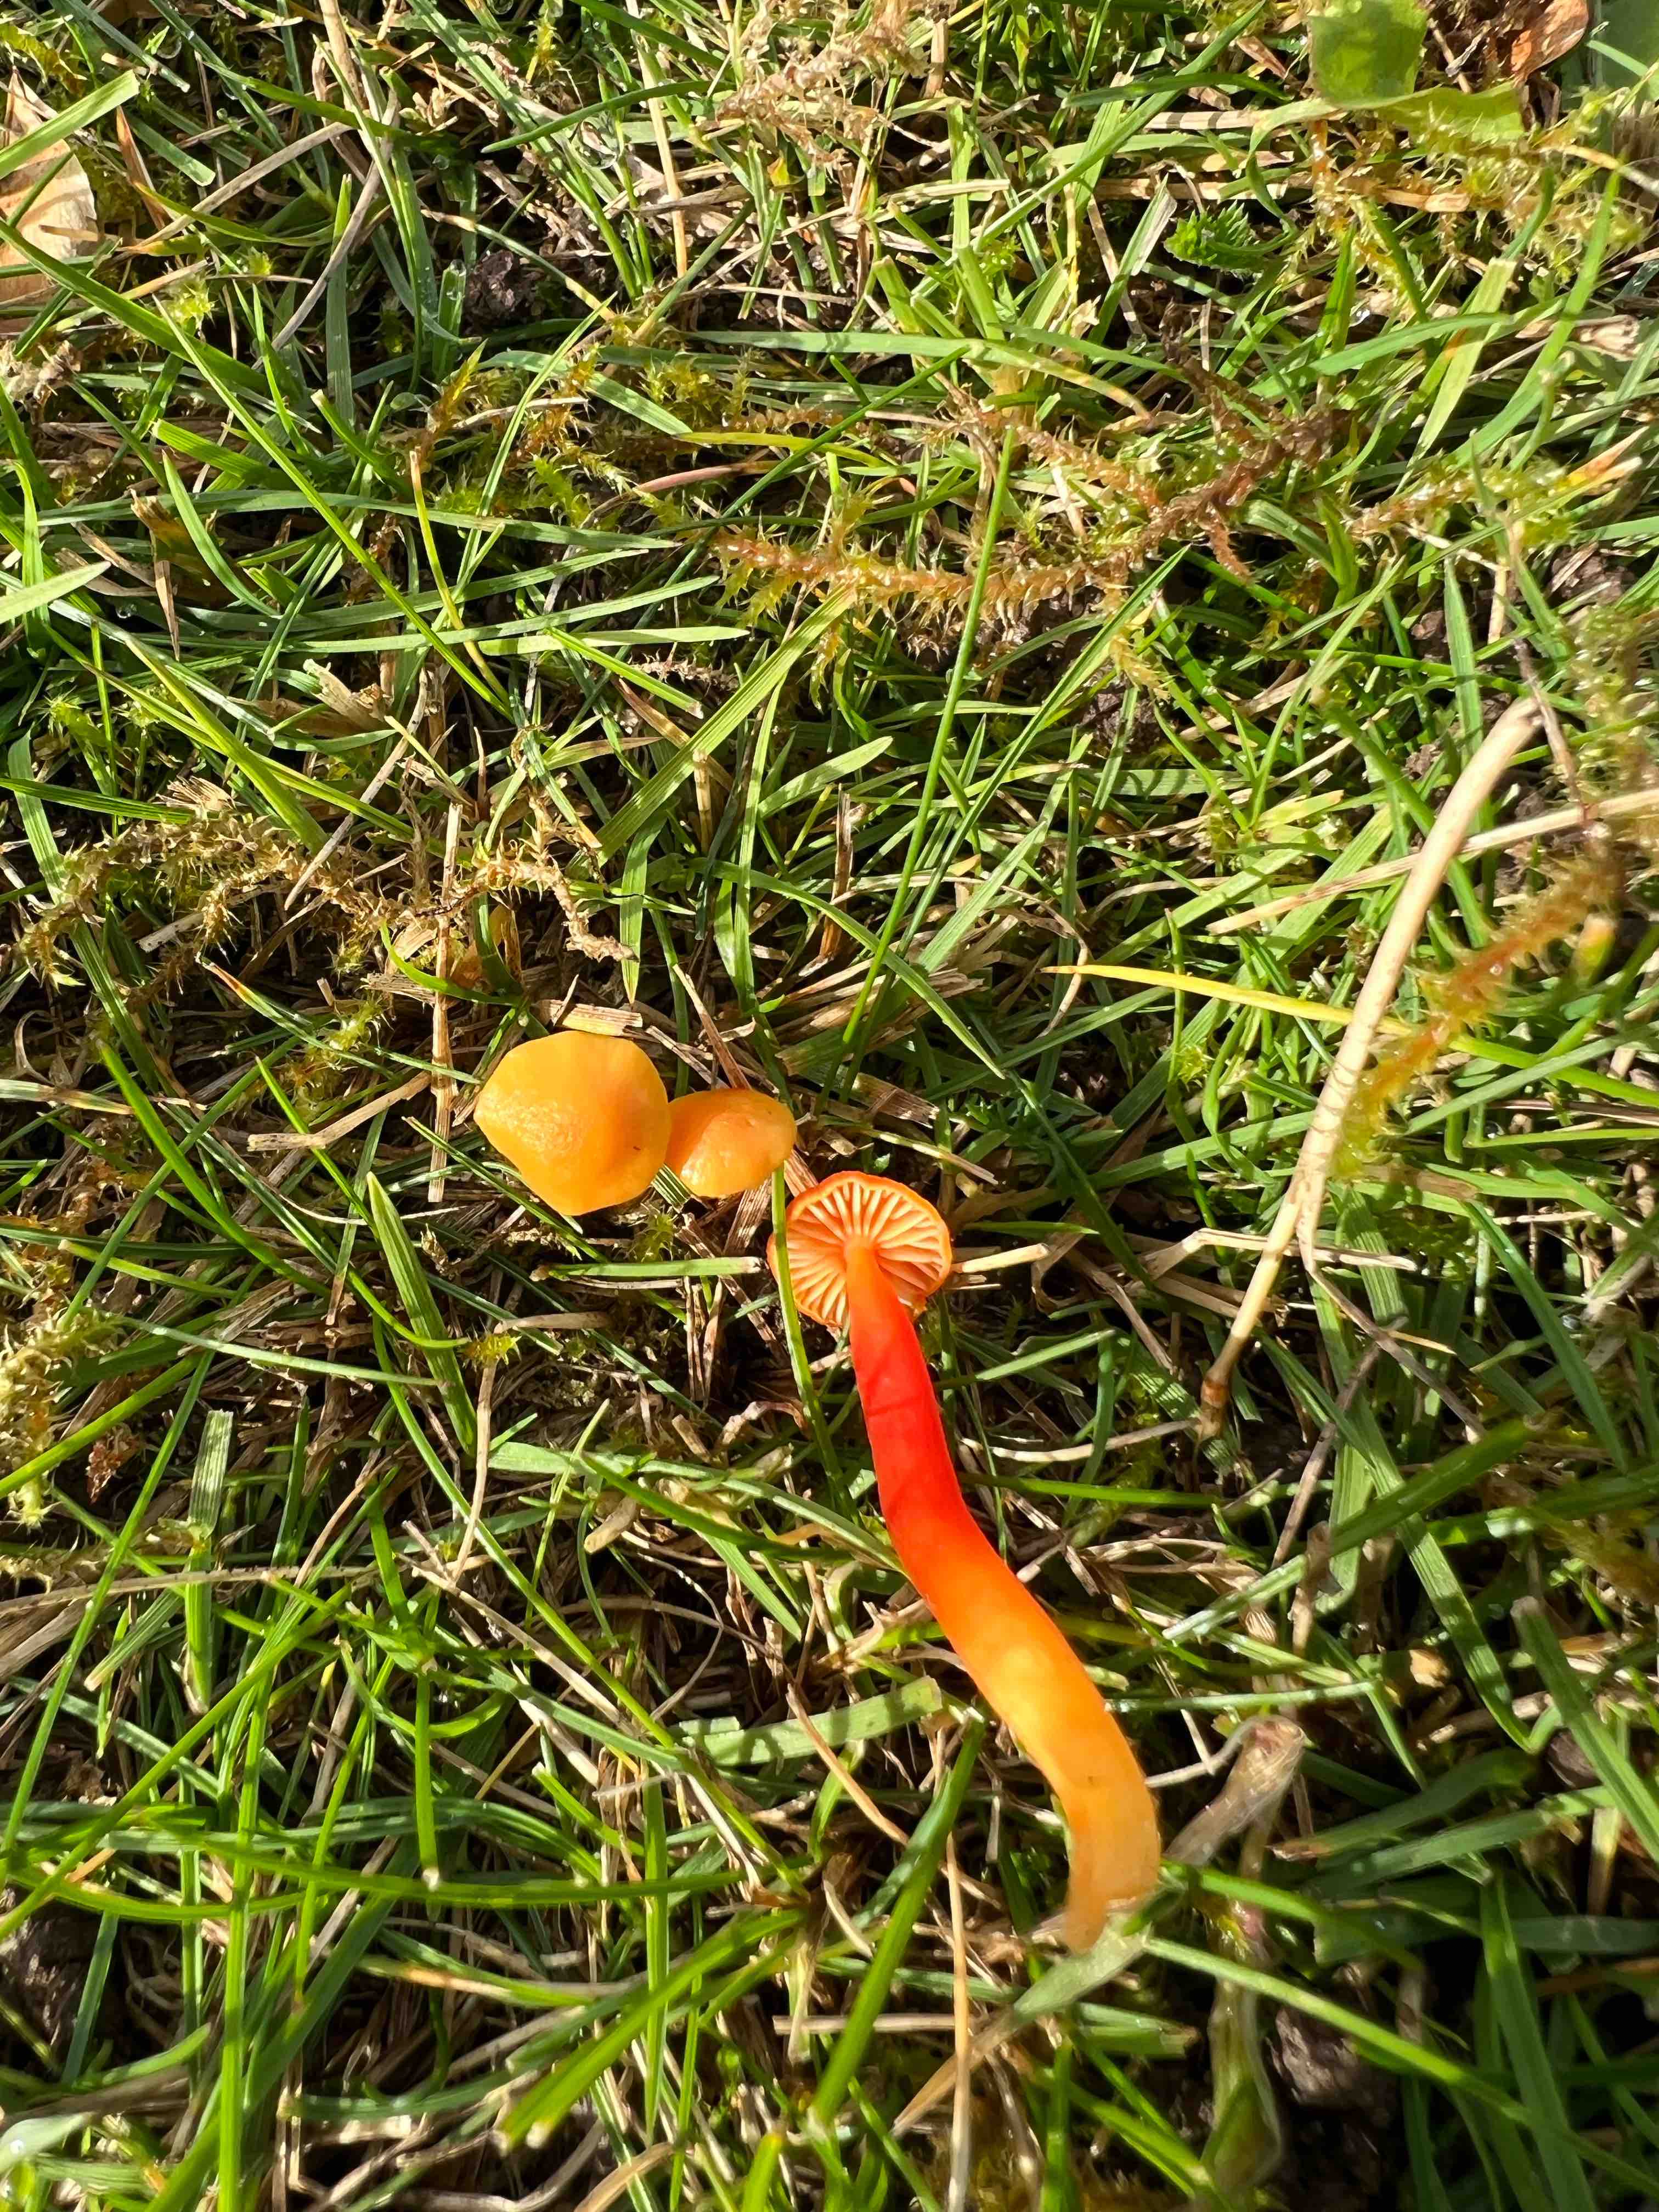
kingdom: Fungi
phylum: Basidiomycota
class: Agaricomycetes
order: Agaricales
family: Hygrophoraceae
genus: Hygrocybe
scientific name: Hygrocybe miniata
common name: mønje-vokshat
